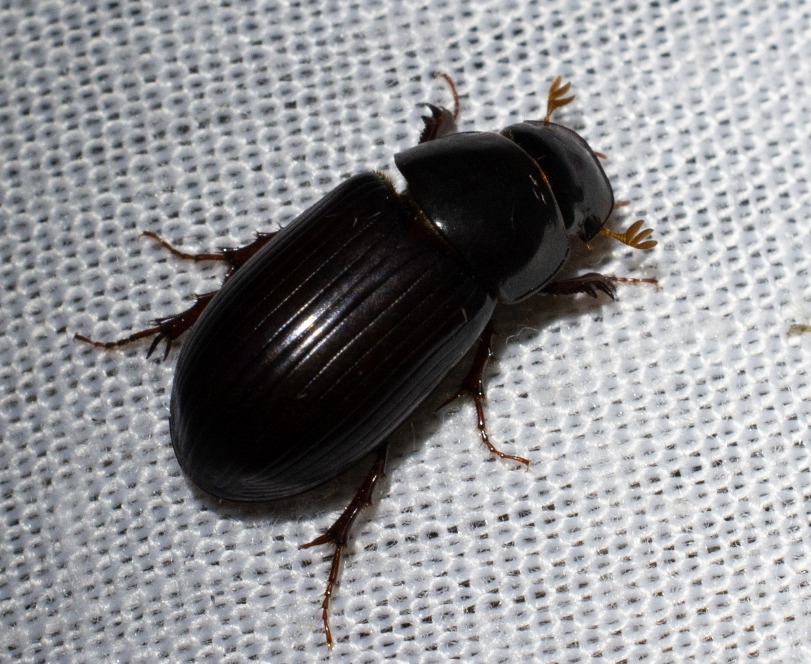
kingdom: Animalia
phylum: Arthropoda
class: Insecta
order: Coleoptera
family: Scarabaeidae
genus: Acrossus
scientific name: Acrossus rufipes
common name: Rødbenet møgbille
